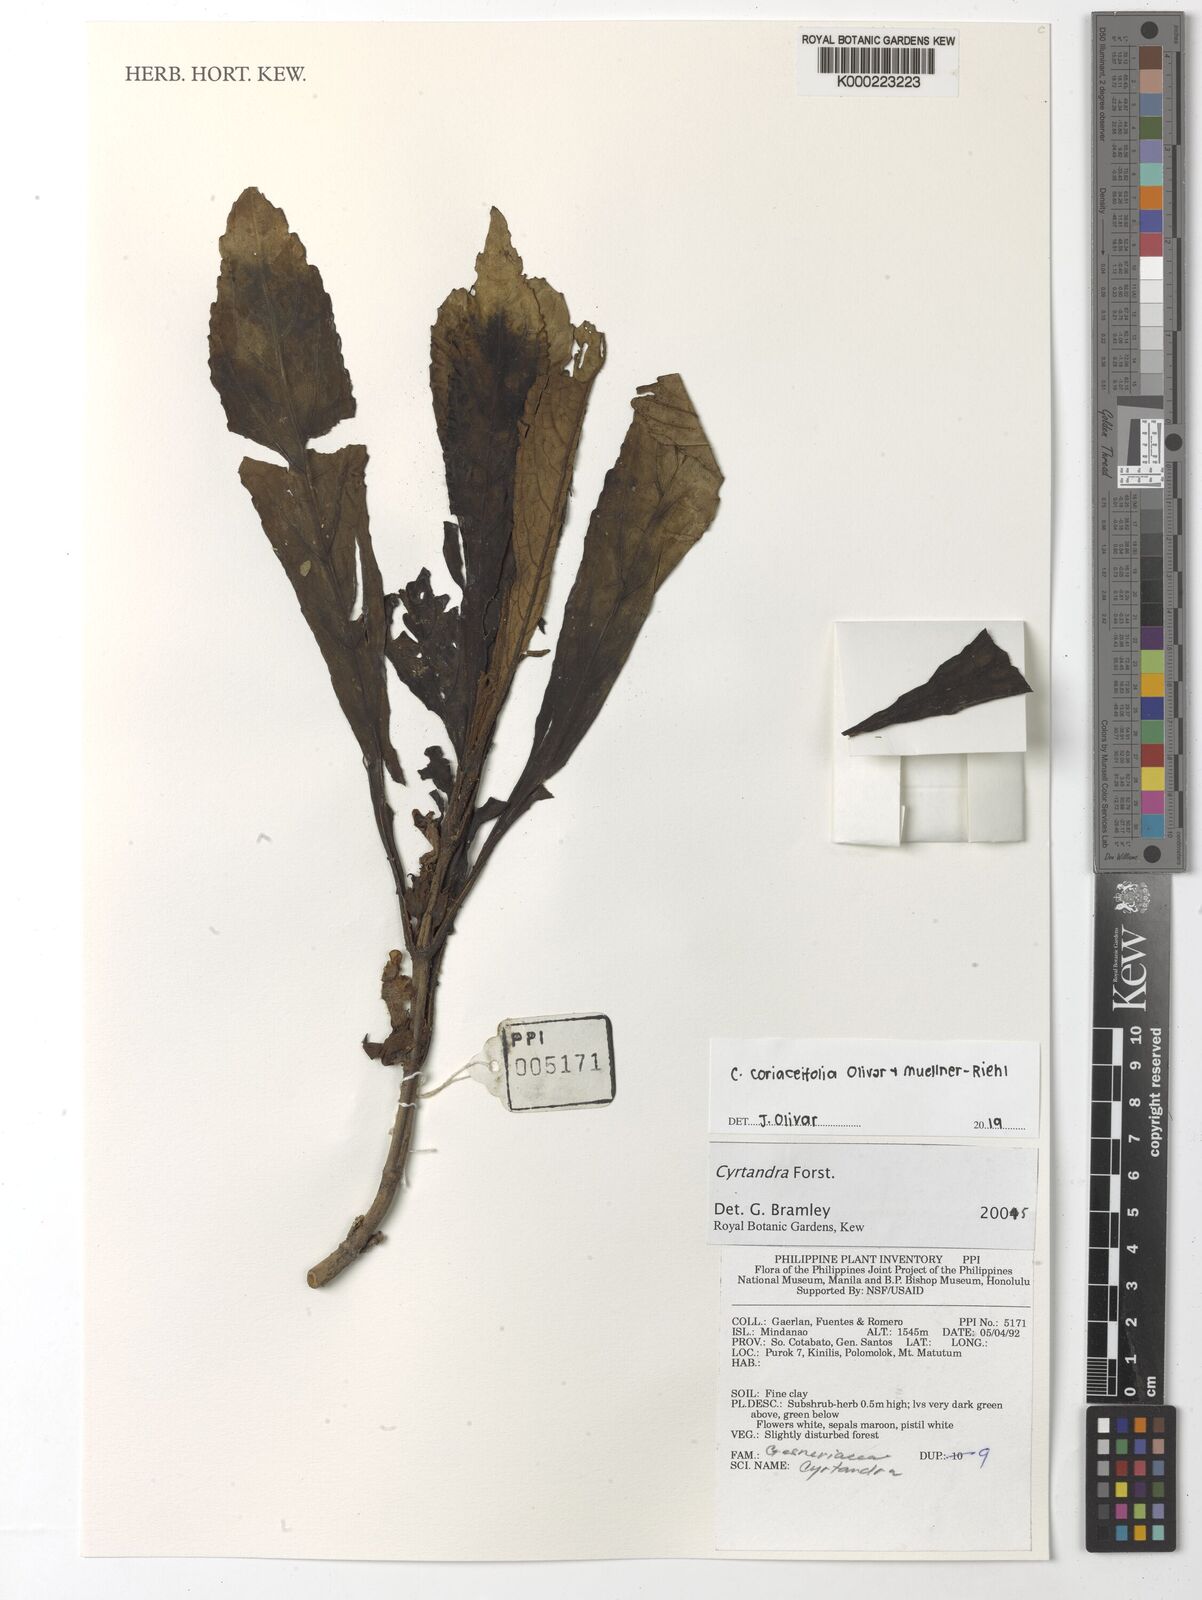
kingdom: Plantae
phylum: Tracheophyta
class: Magnoliopsida
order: Lamiales
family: Gesneriaceae
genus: Cyrtandra
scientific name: Cyrtandra
